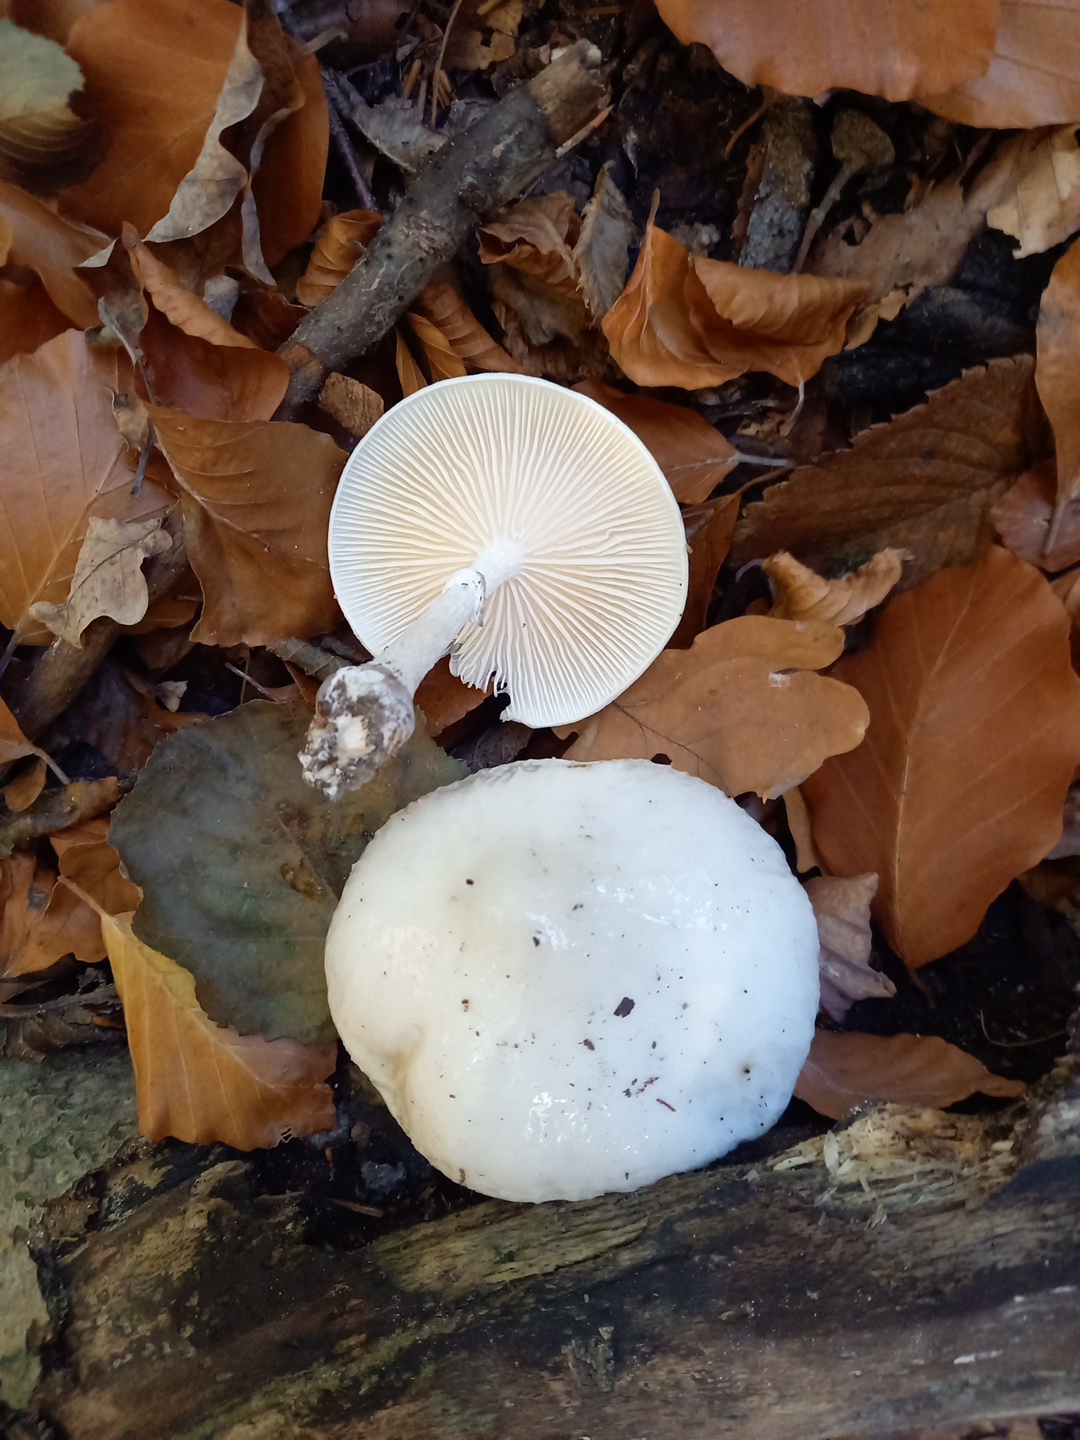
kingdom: Fungi
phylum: Basidiomycota
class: Agaricomycetes
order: Agaricales
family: Physalacriaceae
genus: Mucidula
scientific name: Mucidula mucida
